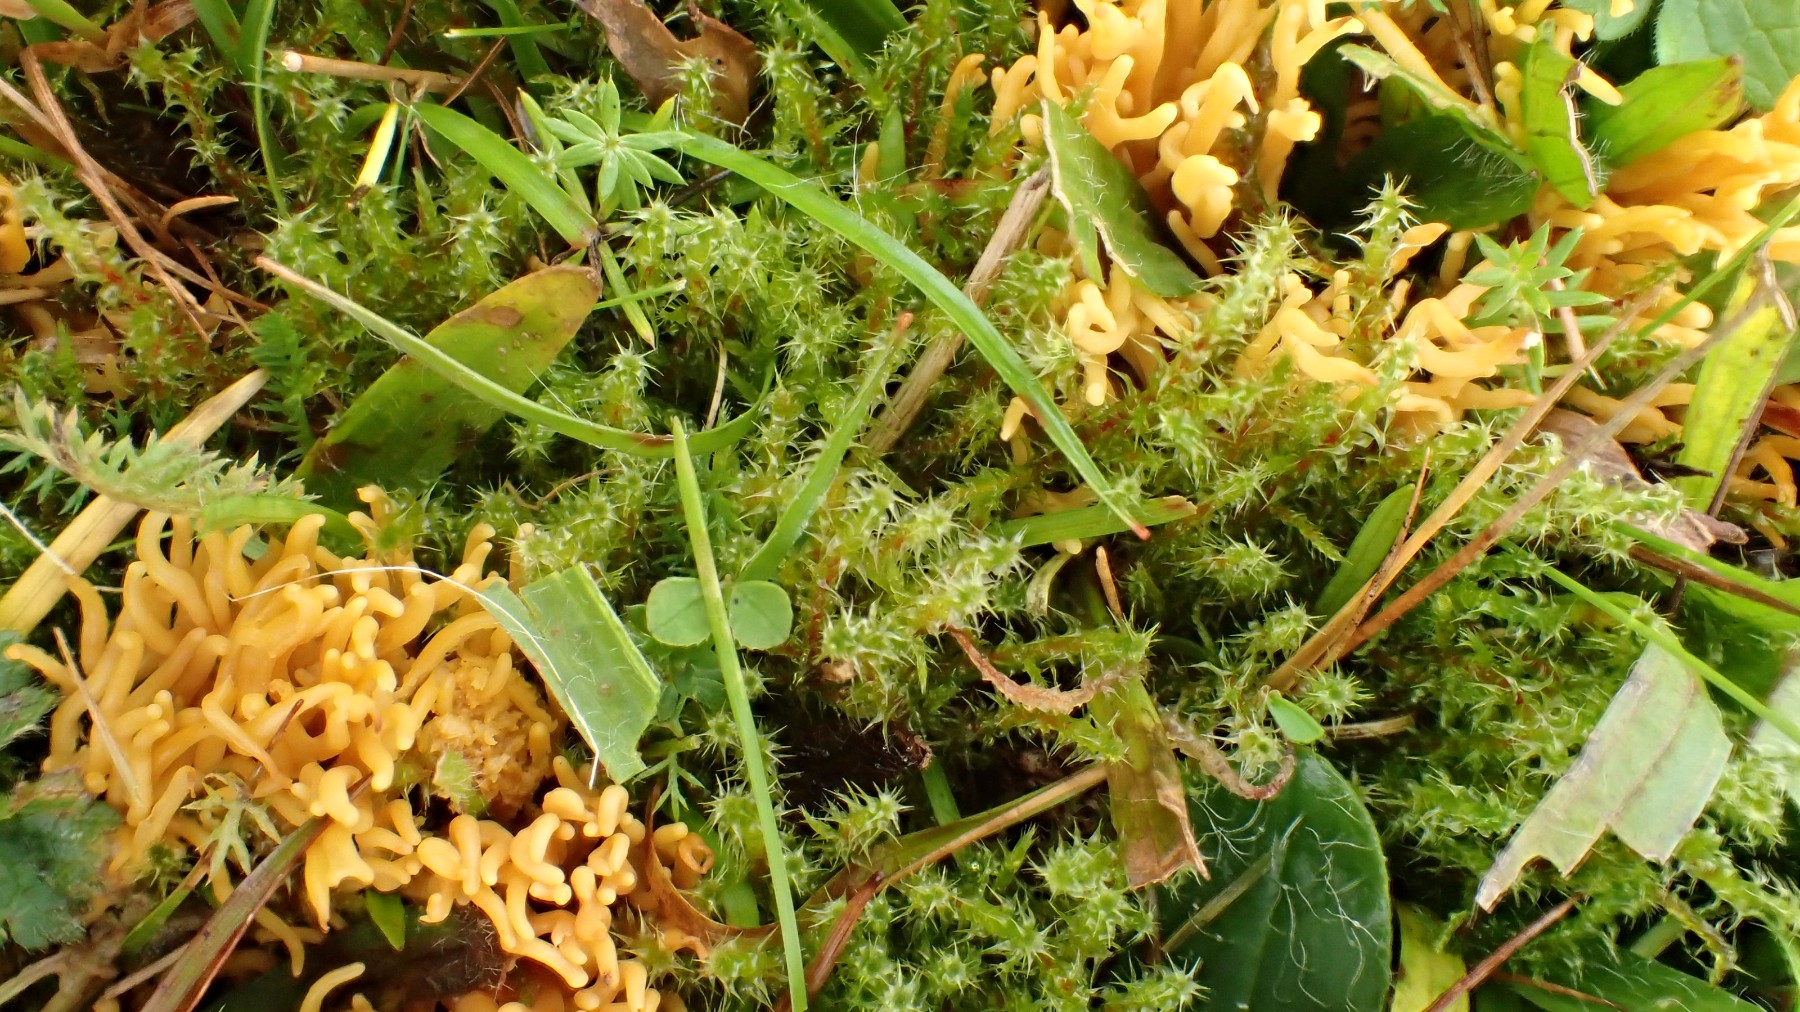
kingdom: Fungi
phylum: Basidiomycota
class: Agaricomycetes
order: Agaricales
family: Clavariaceae
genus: Clavulinopsis
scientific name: Clavulinopsis corniculata
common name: eng-køllesvamp
